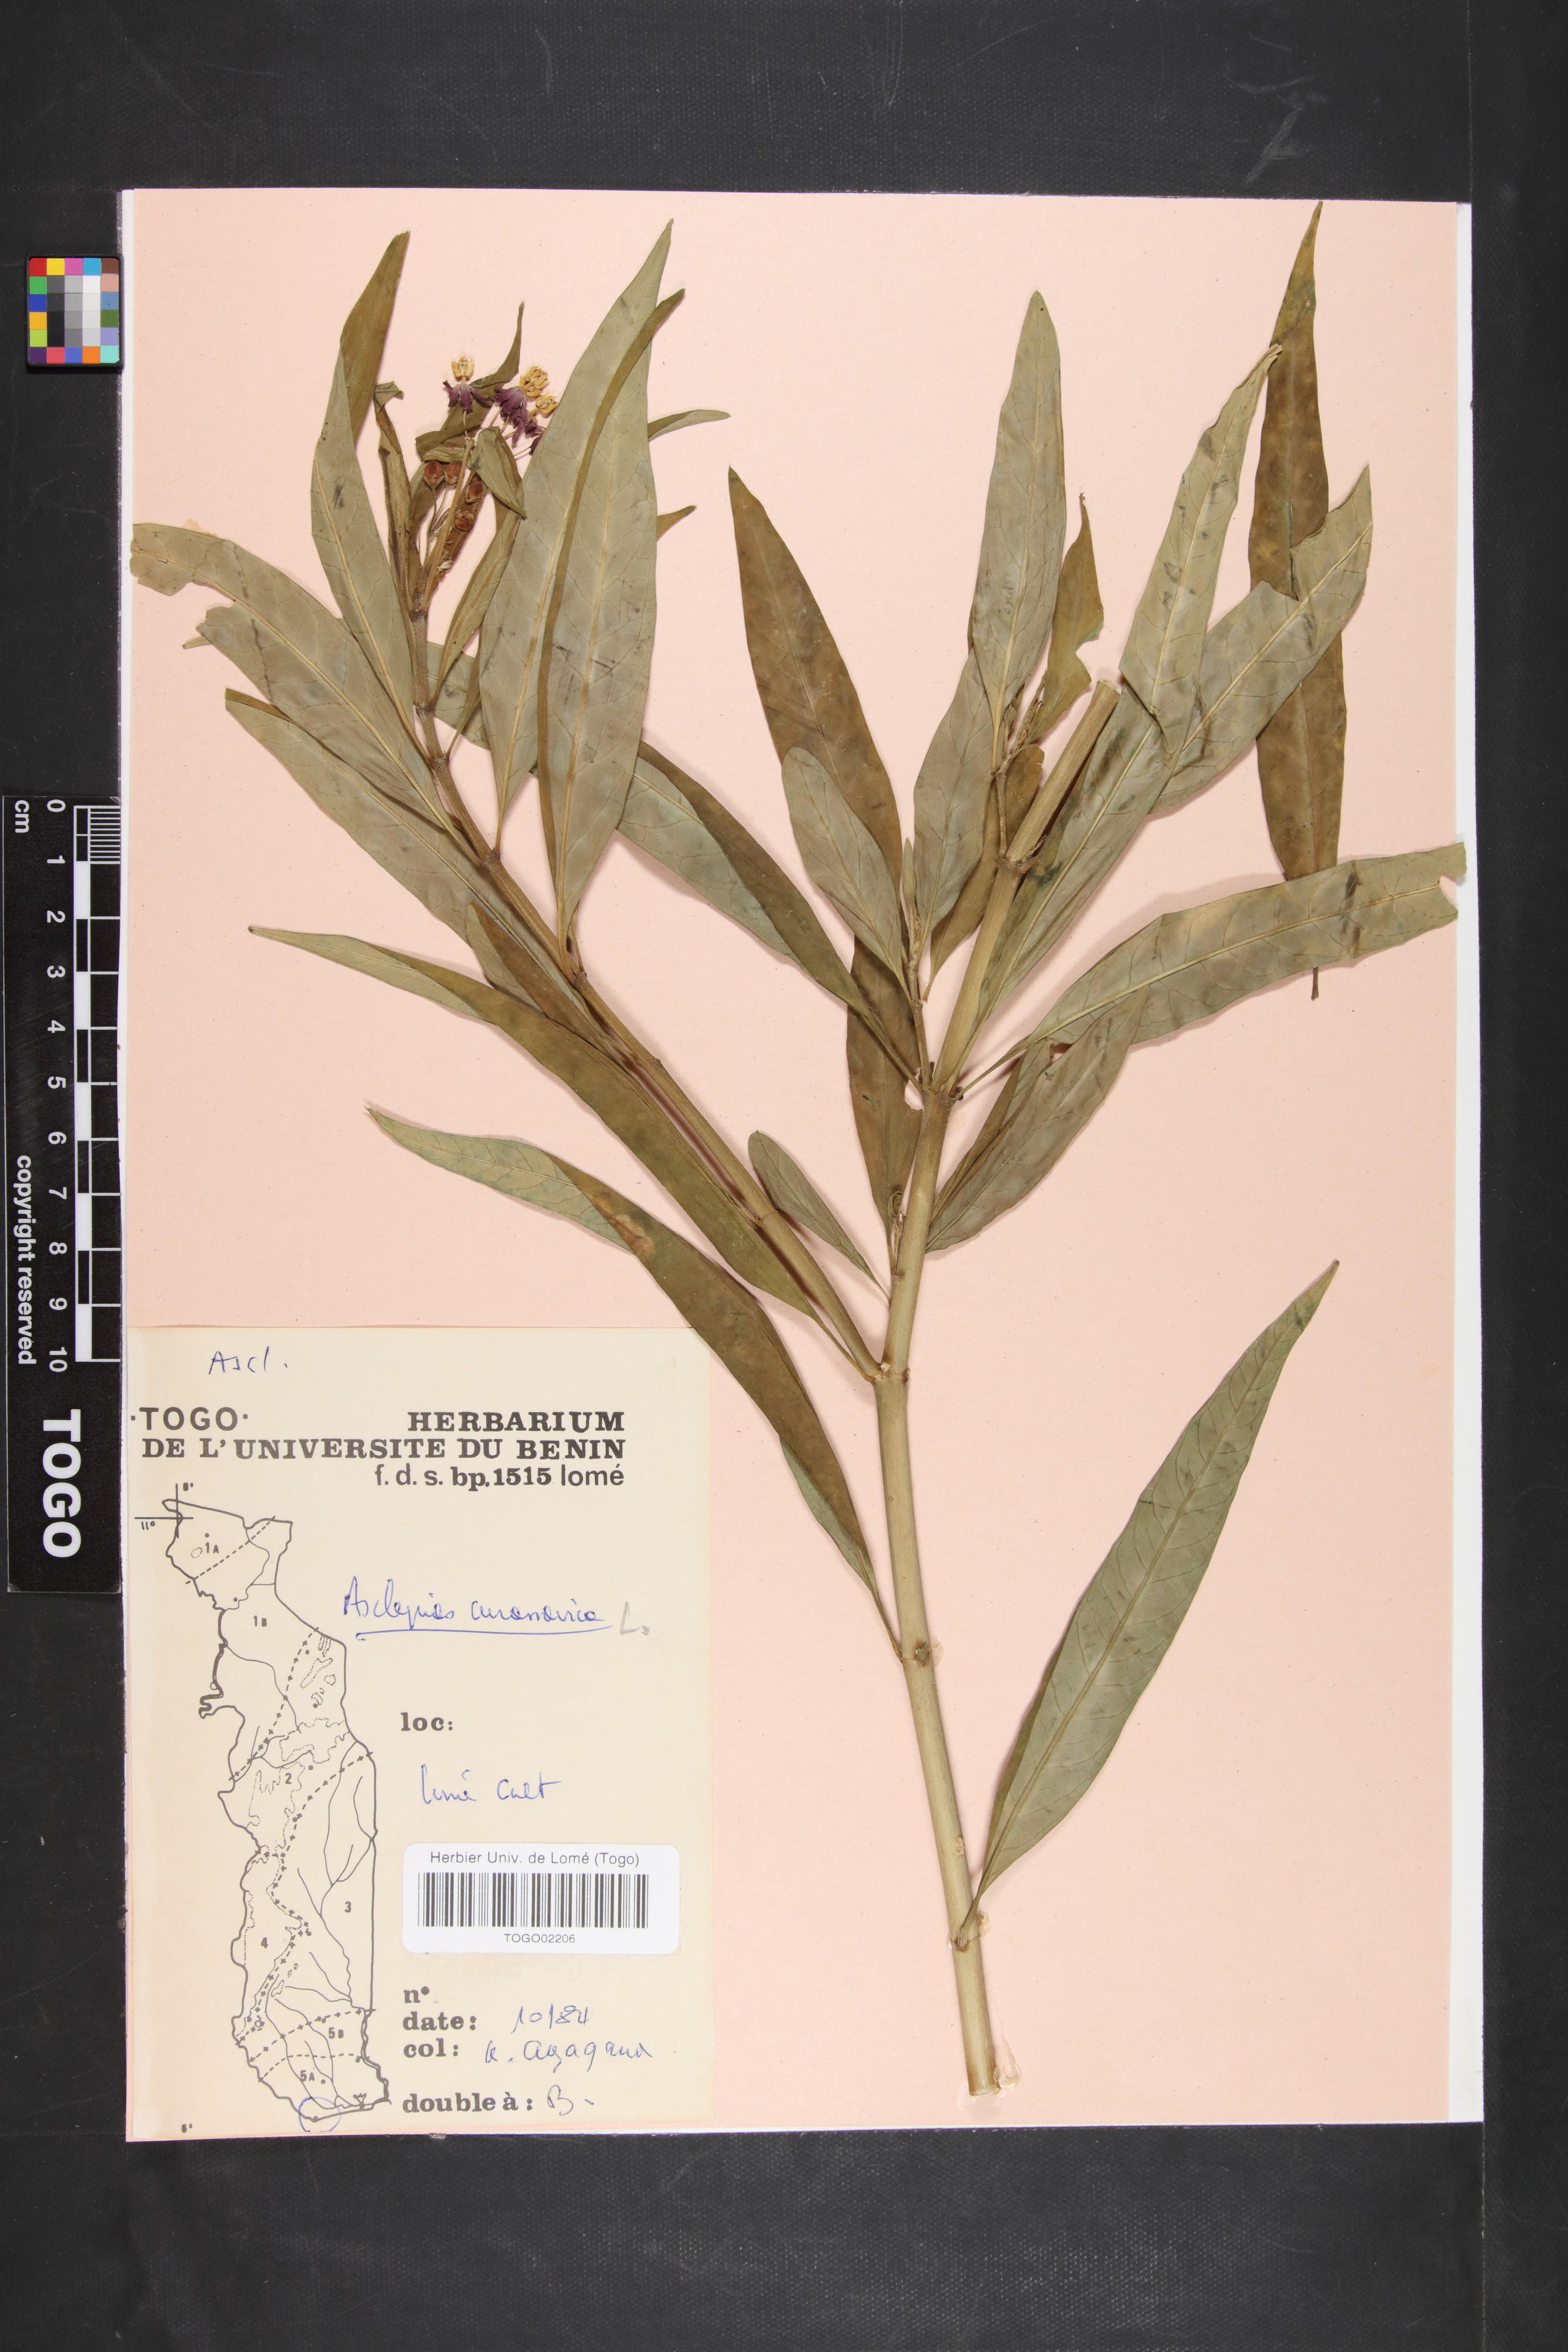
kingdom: Plantae
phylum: Tracheophyta
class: Magnoliopsida
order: Gentianales
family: Apocynaceae
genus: Asclepias
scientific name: Asclepias curassavica
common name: Bloodflower
